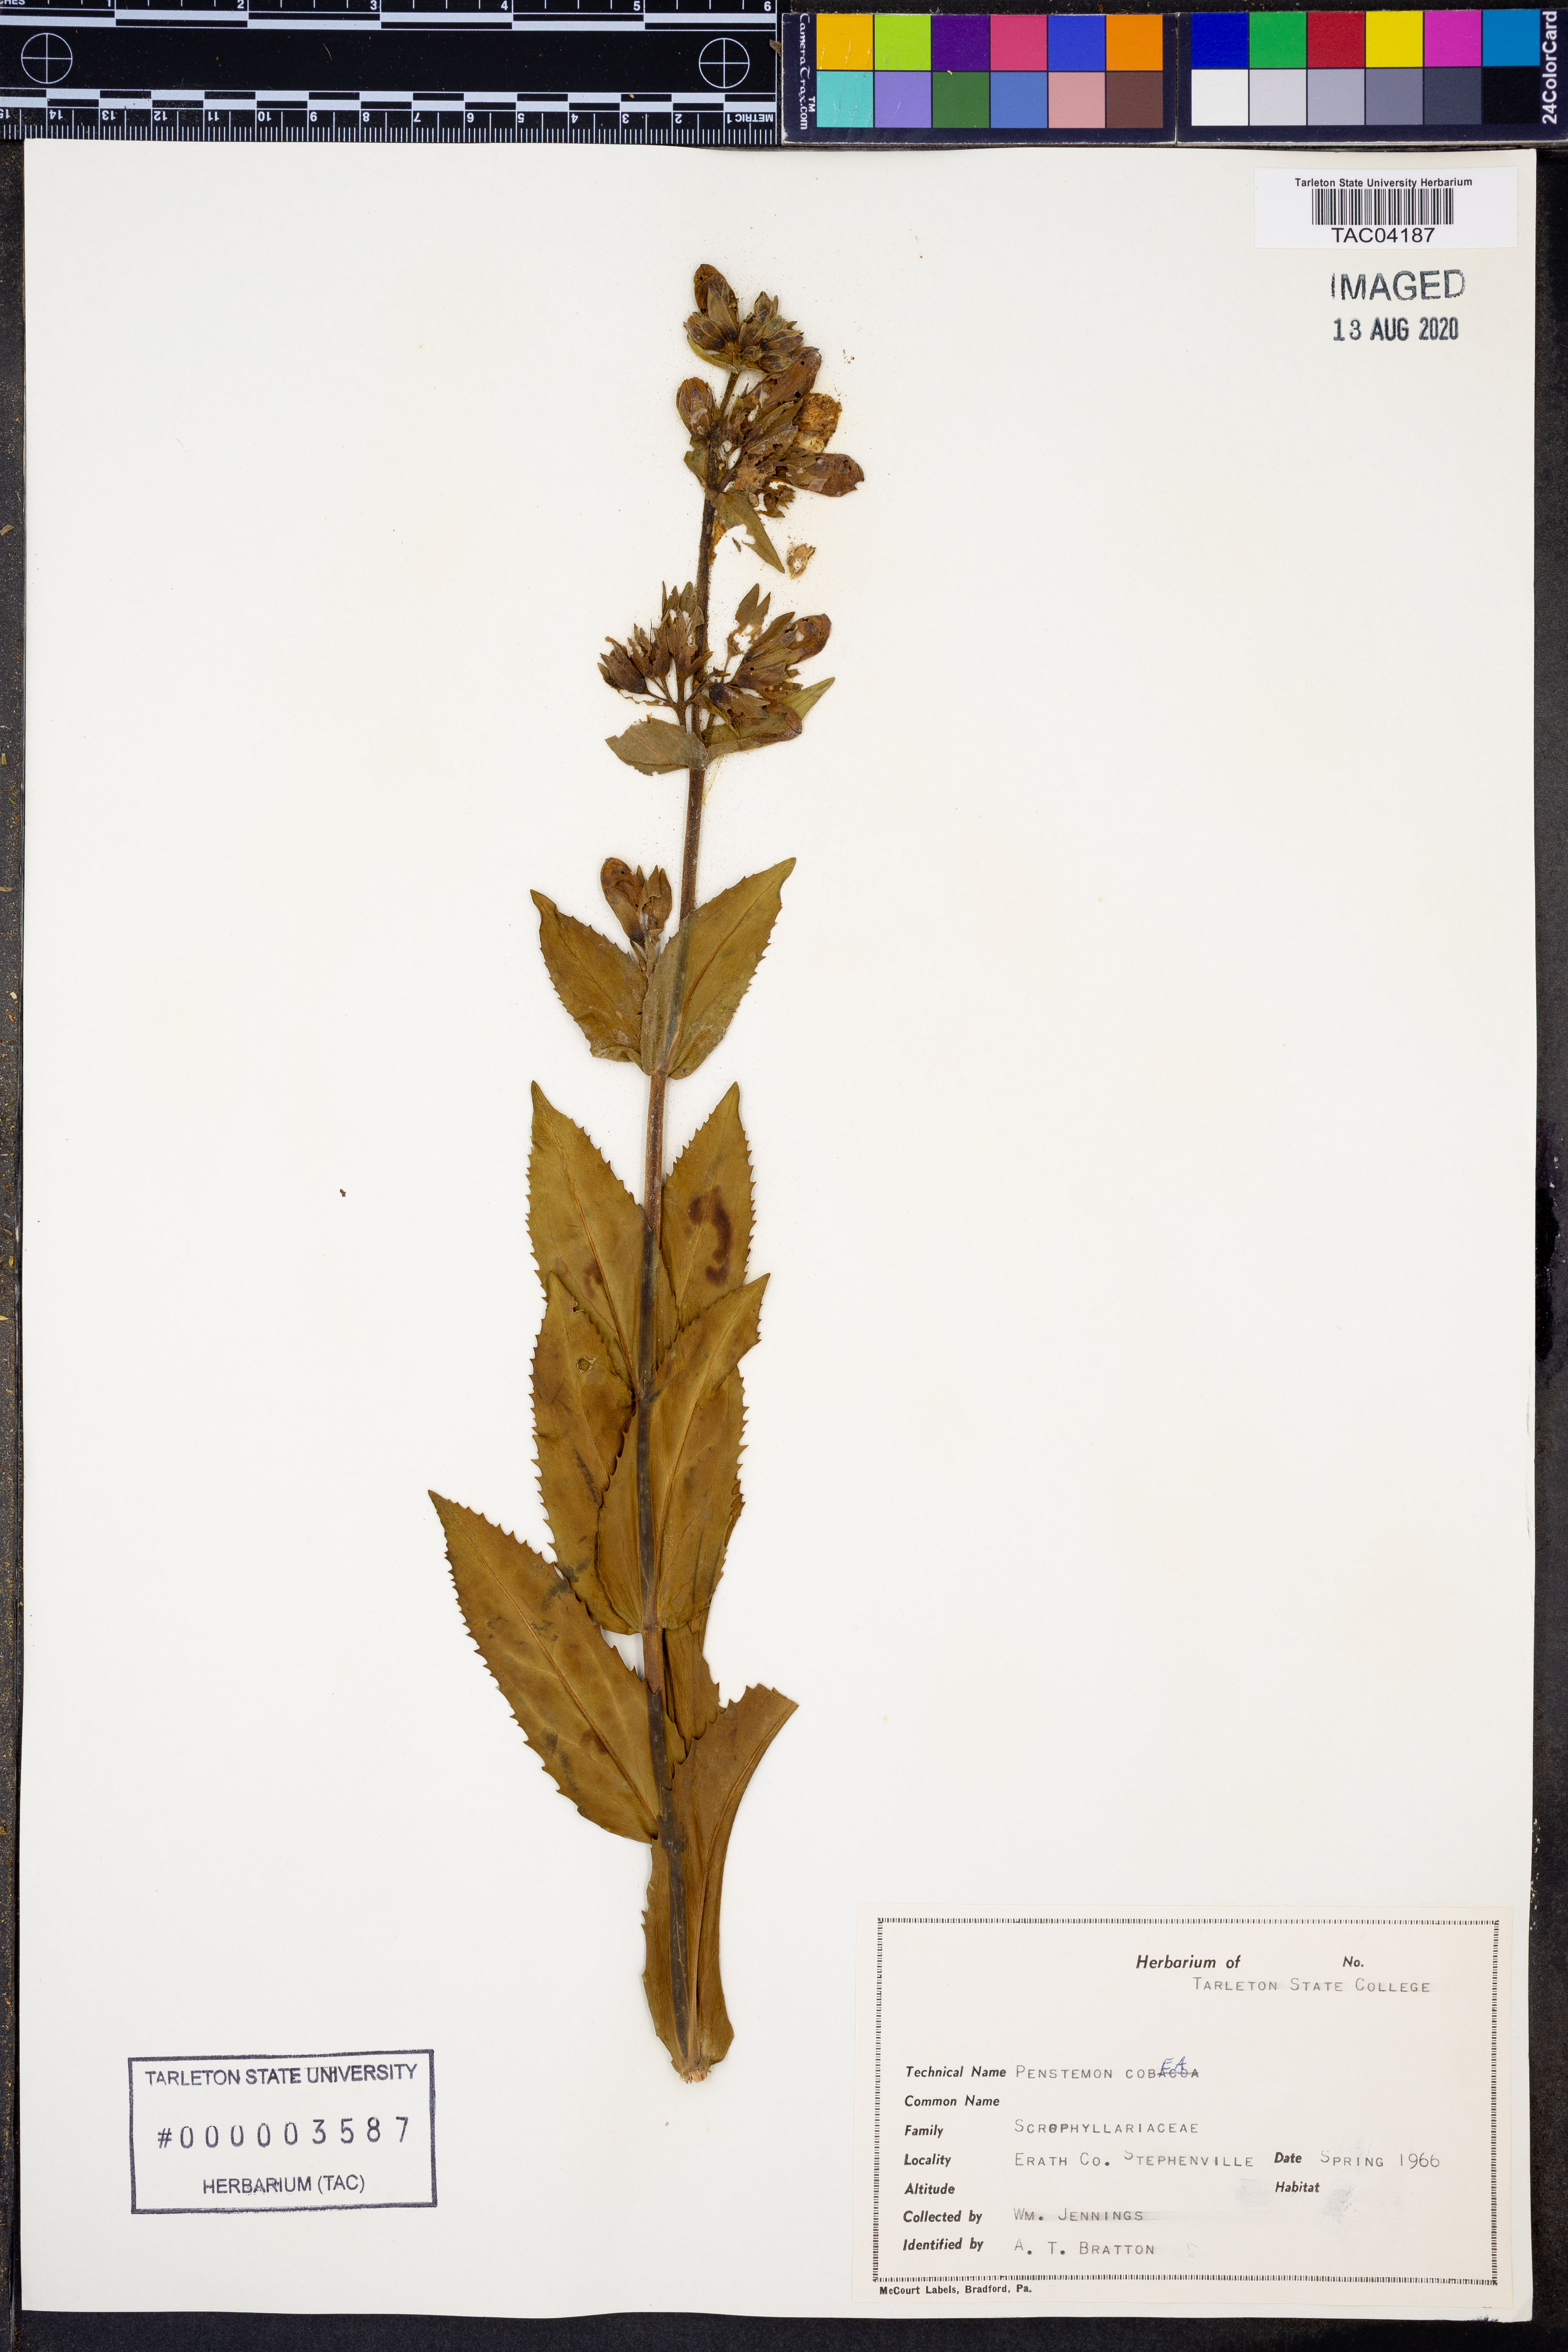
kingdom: Plantae
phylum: Tracheophyta
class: Magnoliopsida
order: Lamiales
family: Plantaginaceae
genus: Penstemon
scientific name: Penstemon cobaea
